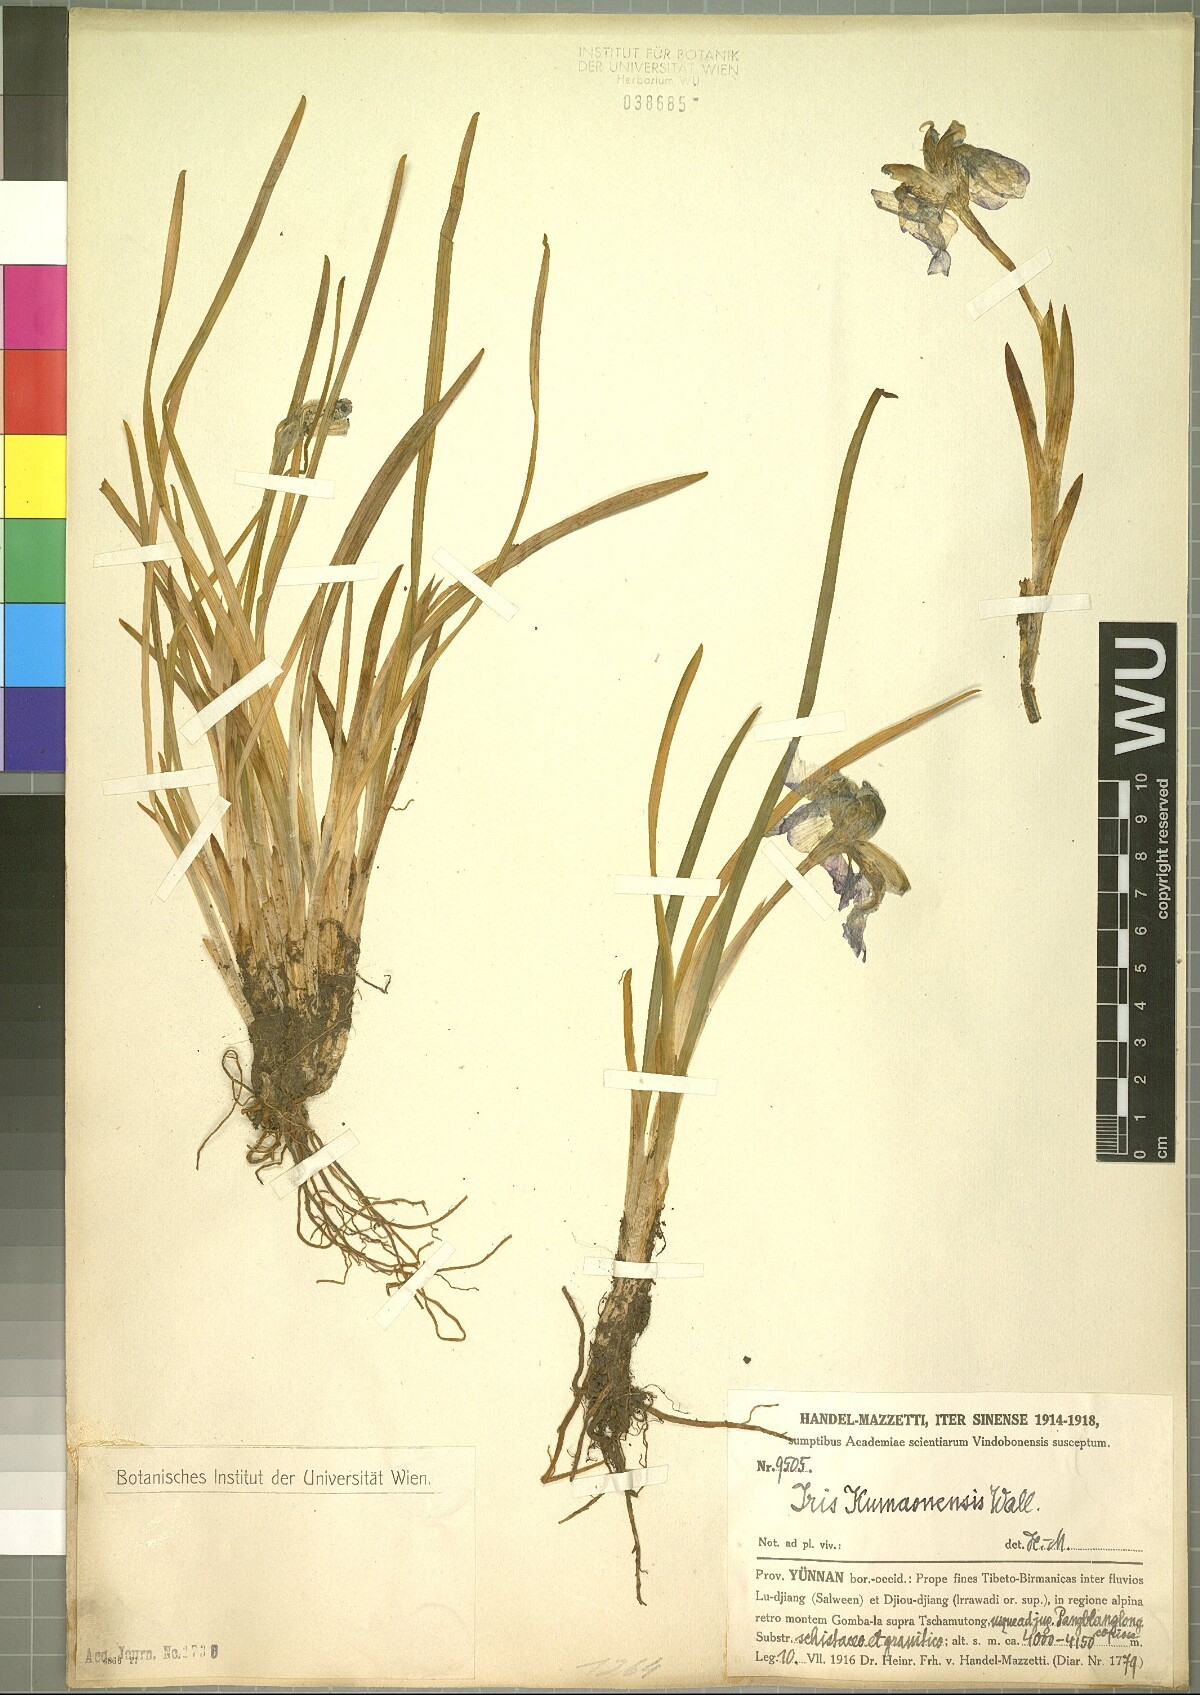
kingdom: Plantae
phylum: Tracheophyta
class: Liliopsida
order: Asparagales
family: Iridaceae
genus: Iris
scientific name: Iris kemaonensis
